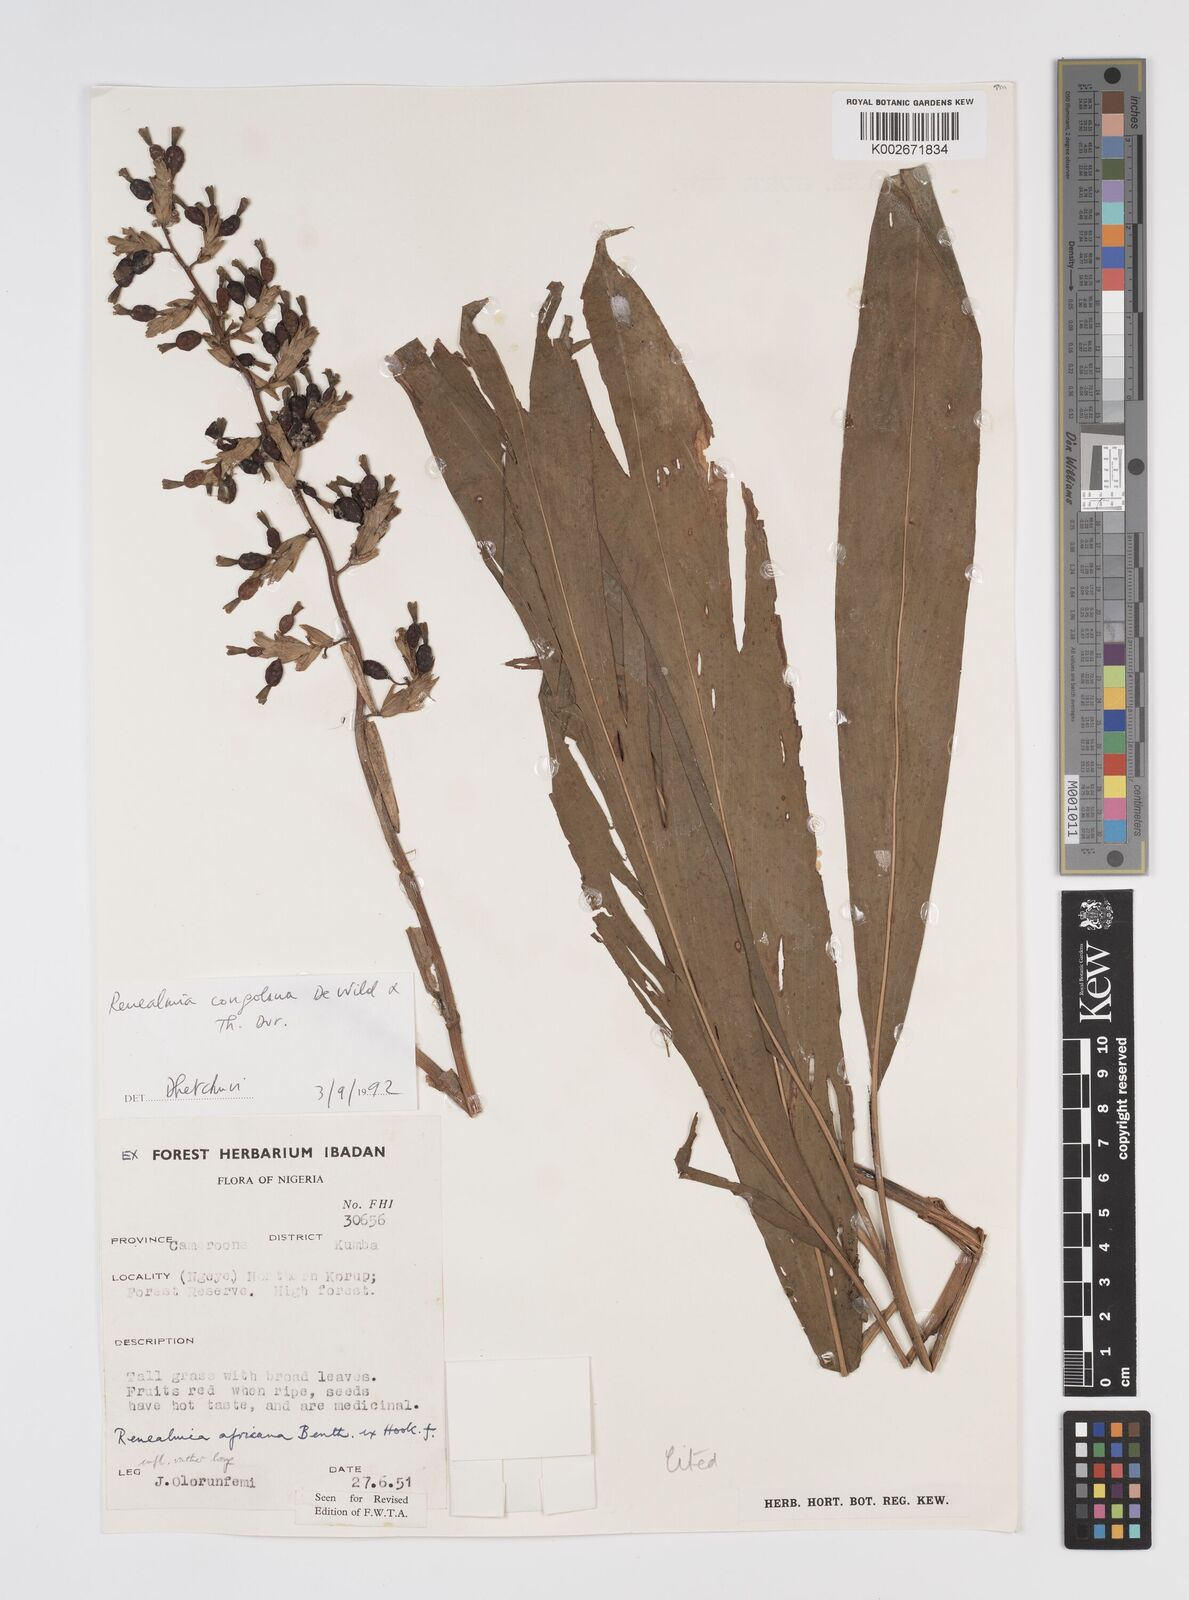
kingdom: Plantae
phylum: Tracheophyta
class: Liliopsida
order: Zingiberales
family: Zingiberaceae
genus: Renealmia
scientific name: Renealmia africana
